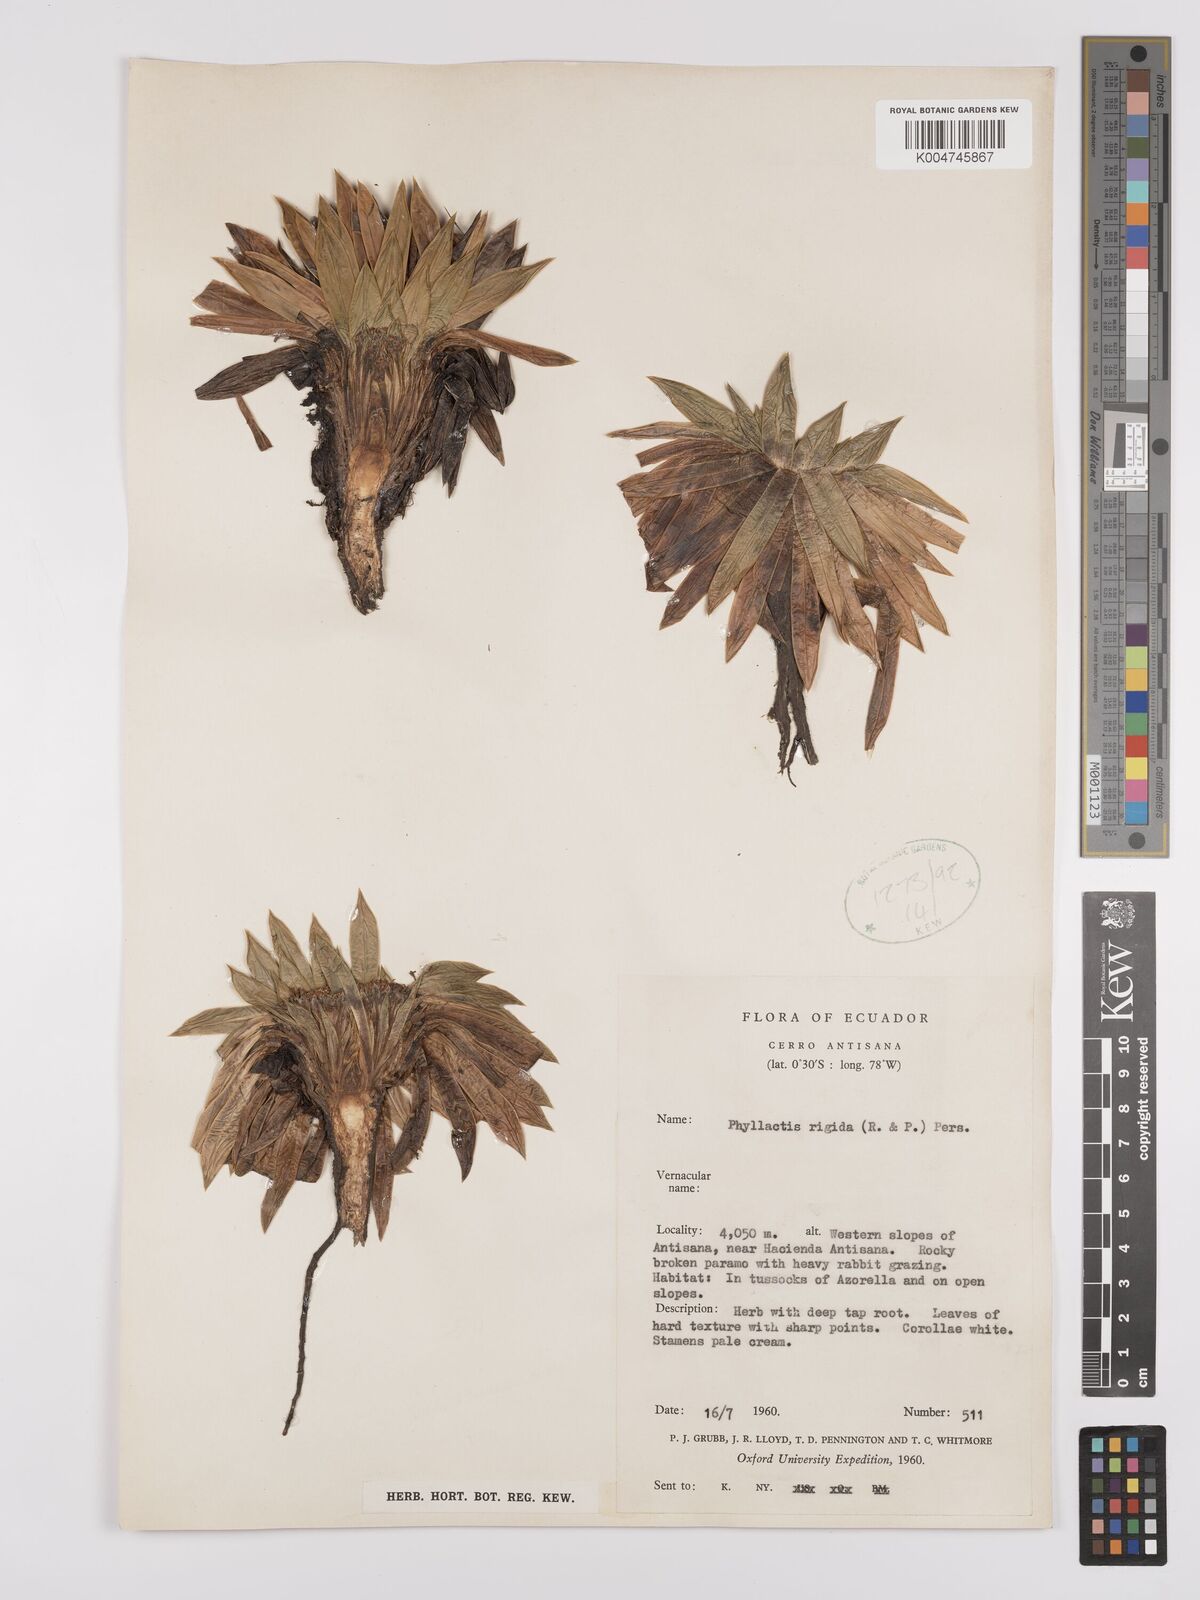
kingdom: Plantae
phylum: Tracheophyta
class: Magnoliopsida
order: Dipsacales
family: Caprifoliaceae
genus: Valeriana
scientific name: Valeriana rigida
